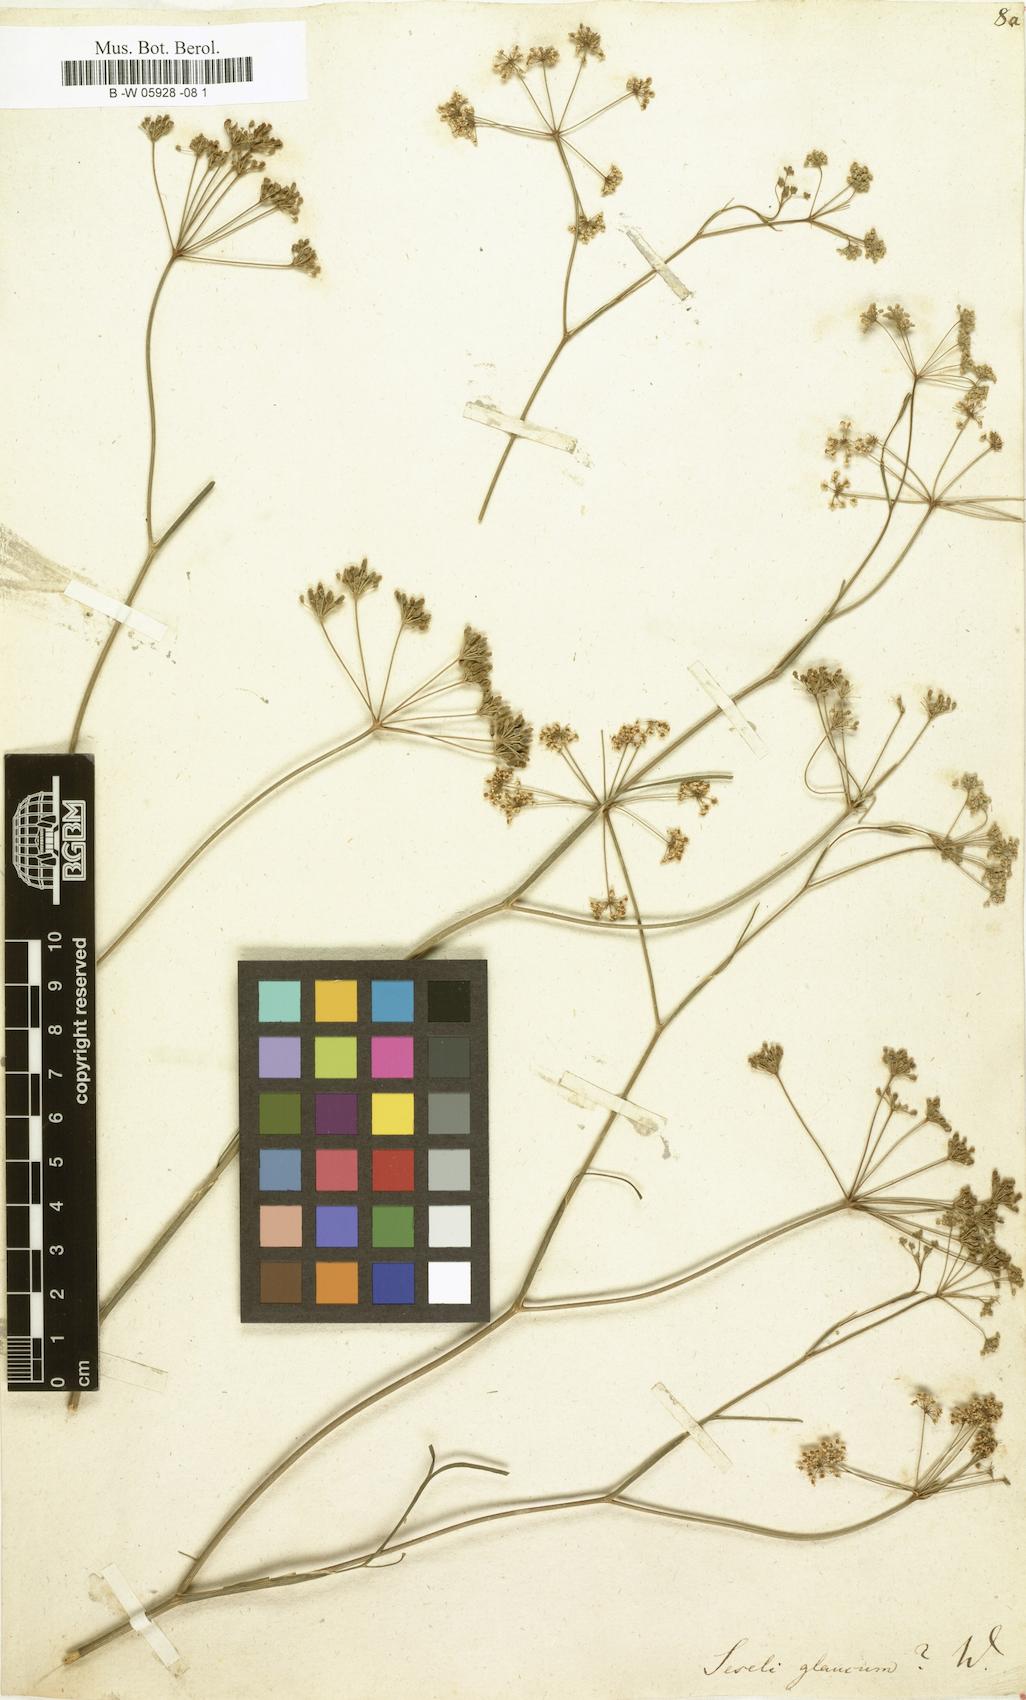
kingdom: Plantae
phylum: Tracheophyta
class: Magnoliopsida
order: Apiales
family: Apiaceae
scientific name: Apiaceae
